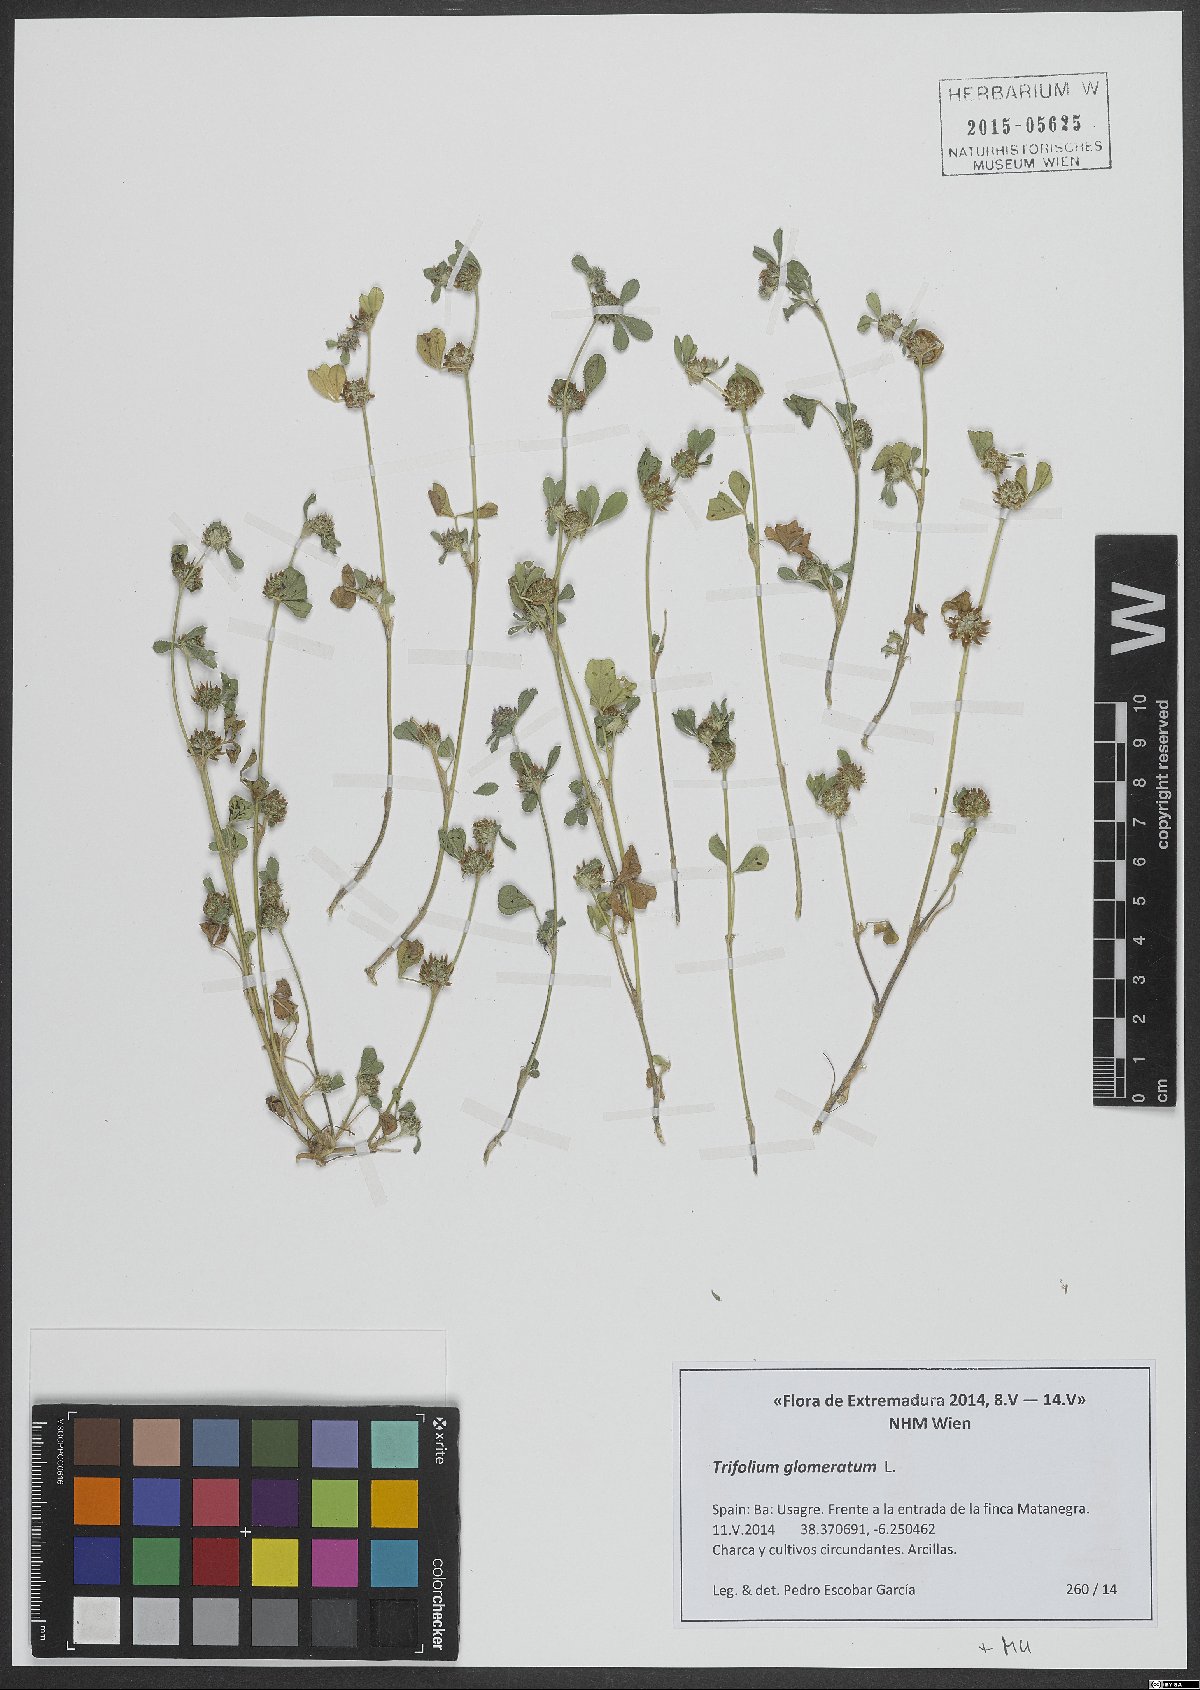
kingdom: Plantae
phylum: Tracheophyta
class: Magnoliopsida
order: Fabales
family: Fabaceae
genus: Trifolium
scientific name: Trifolium glomeratum
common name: Clustered clover
